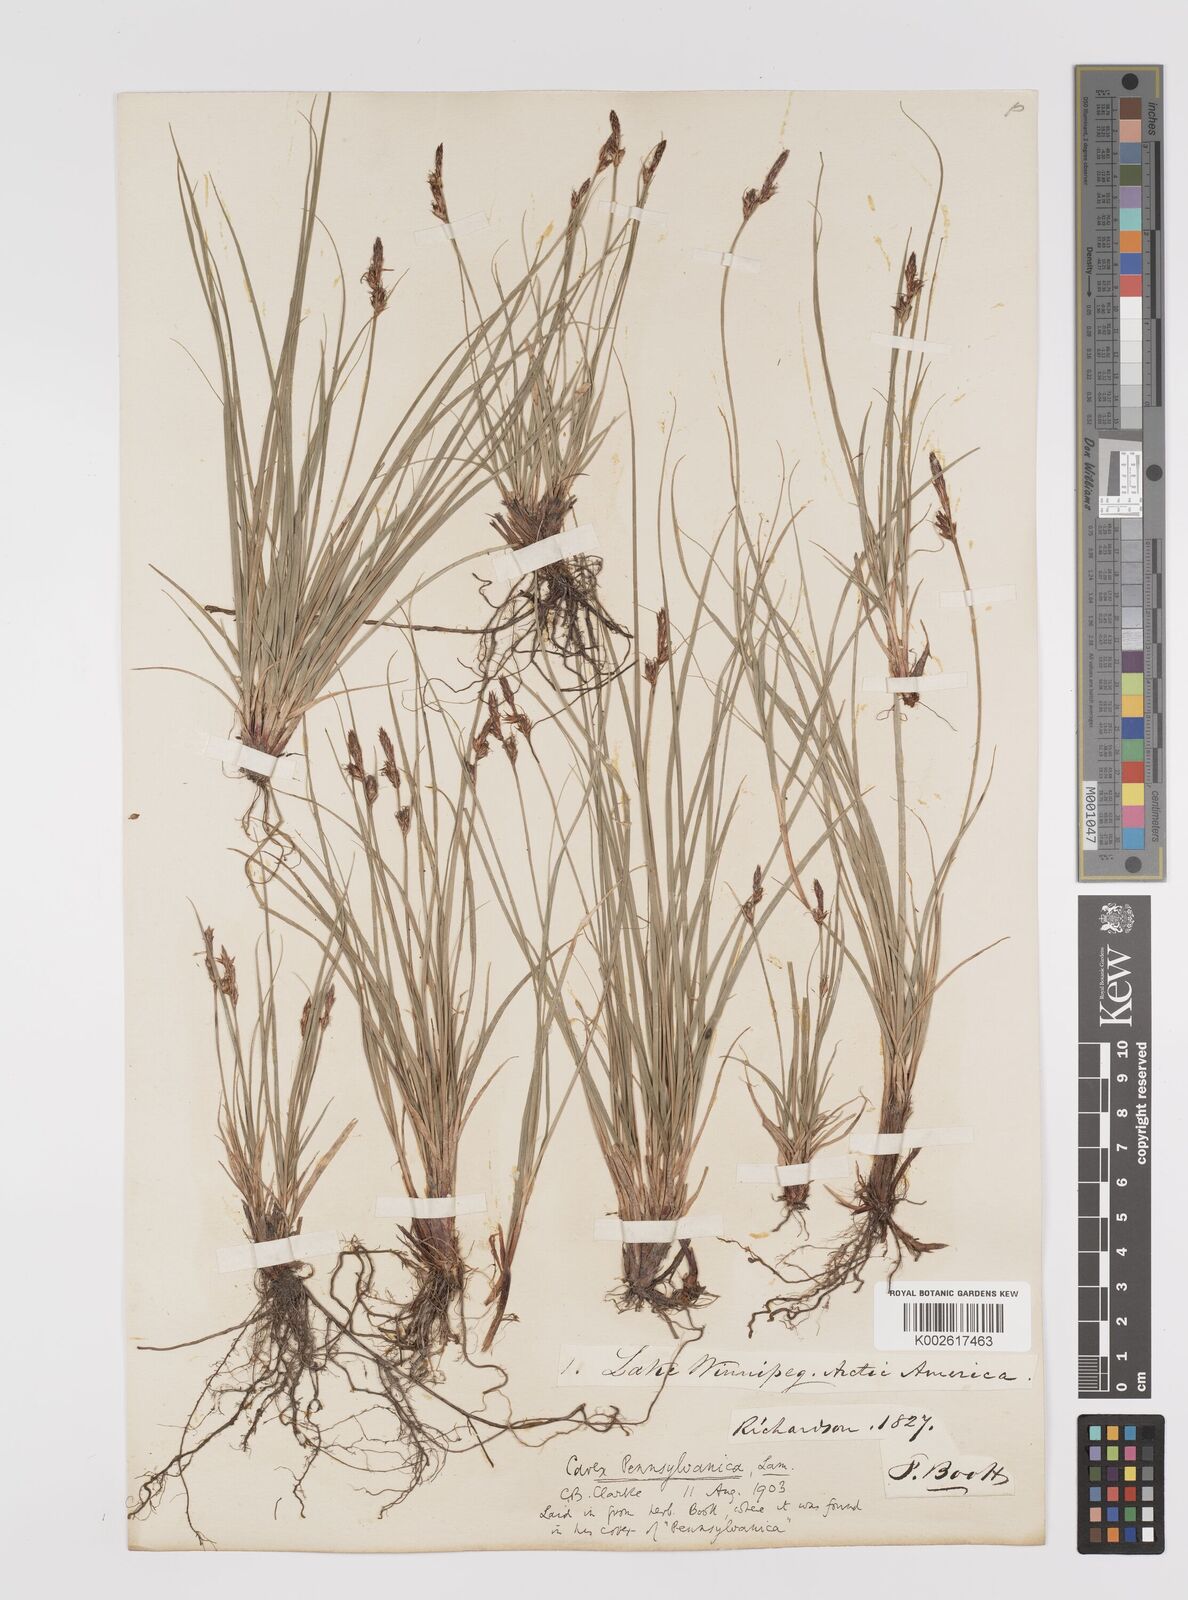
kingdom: Plantae
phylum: Tracheophyta
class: Liliopsida
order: Poales
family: Cyperaceae
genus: Carex
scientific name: Carex pensylvanica
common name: Common oak sedge
